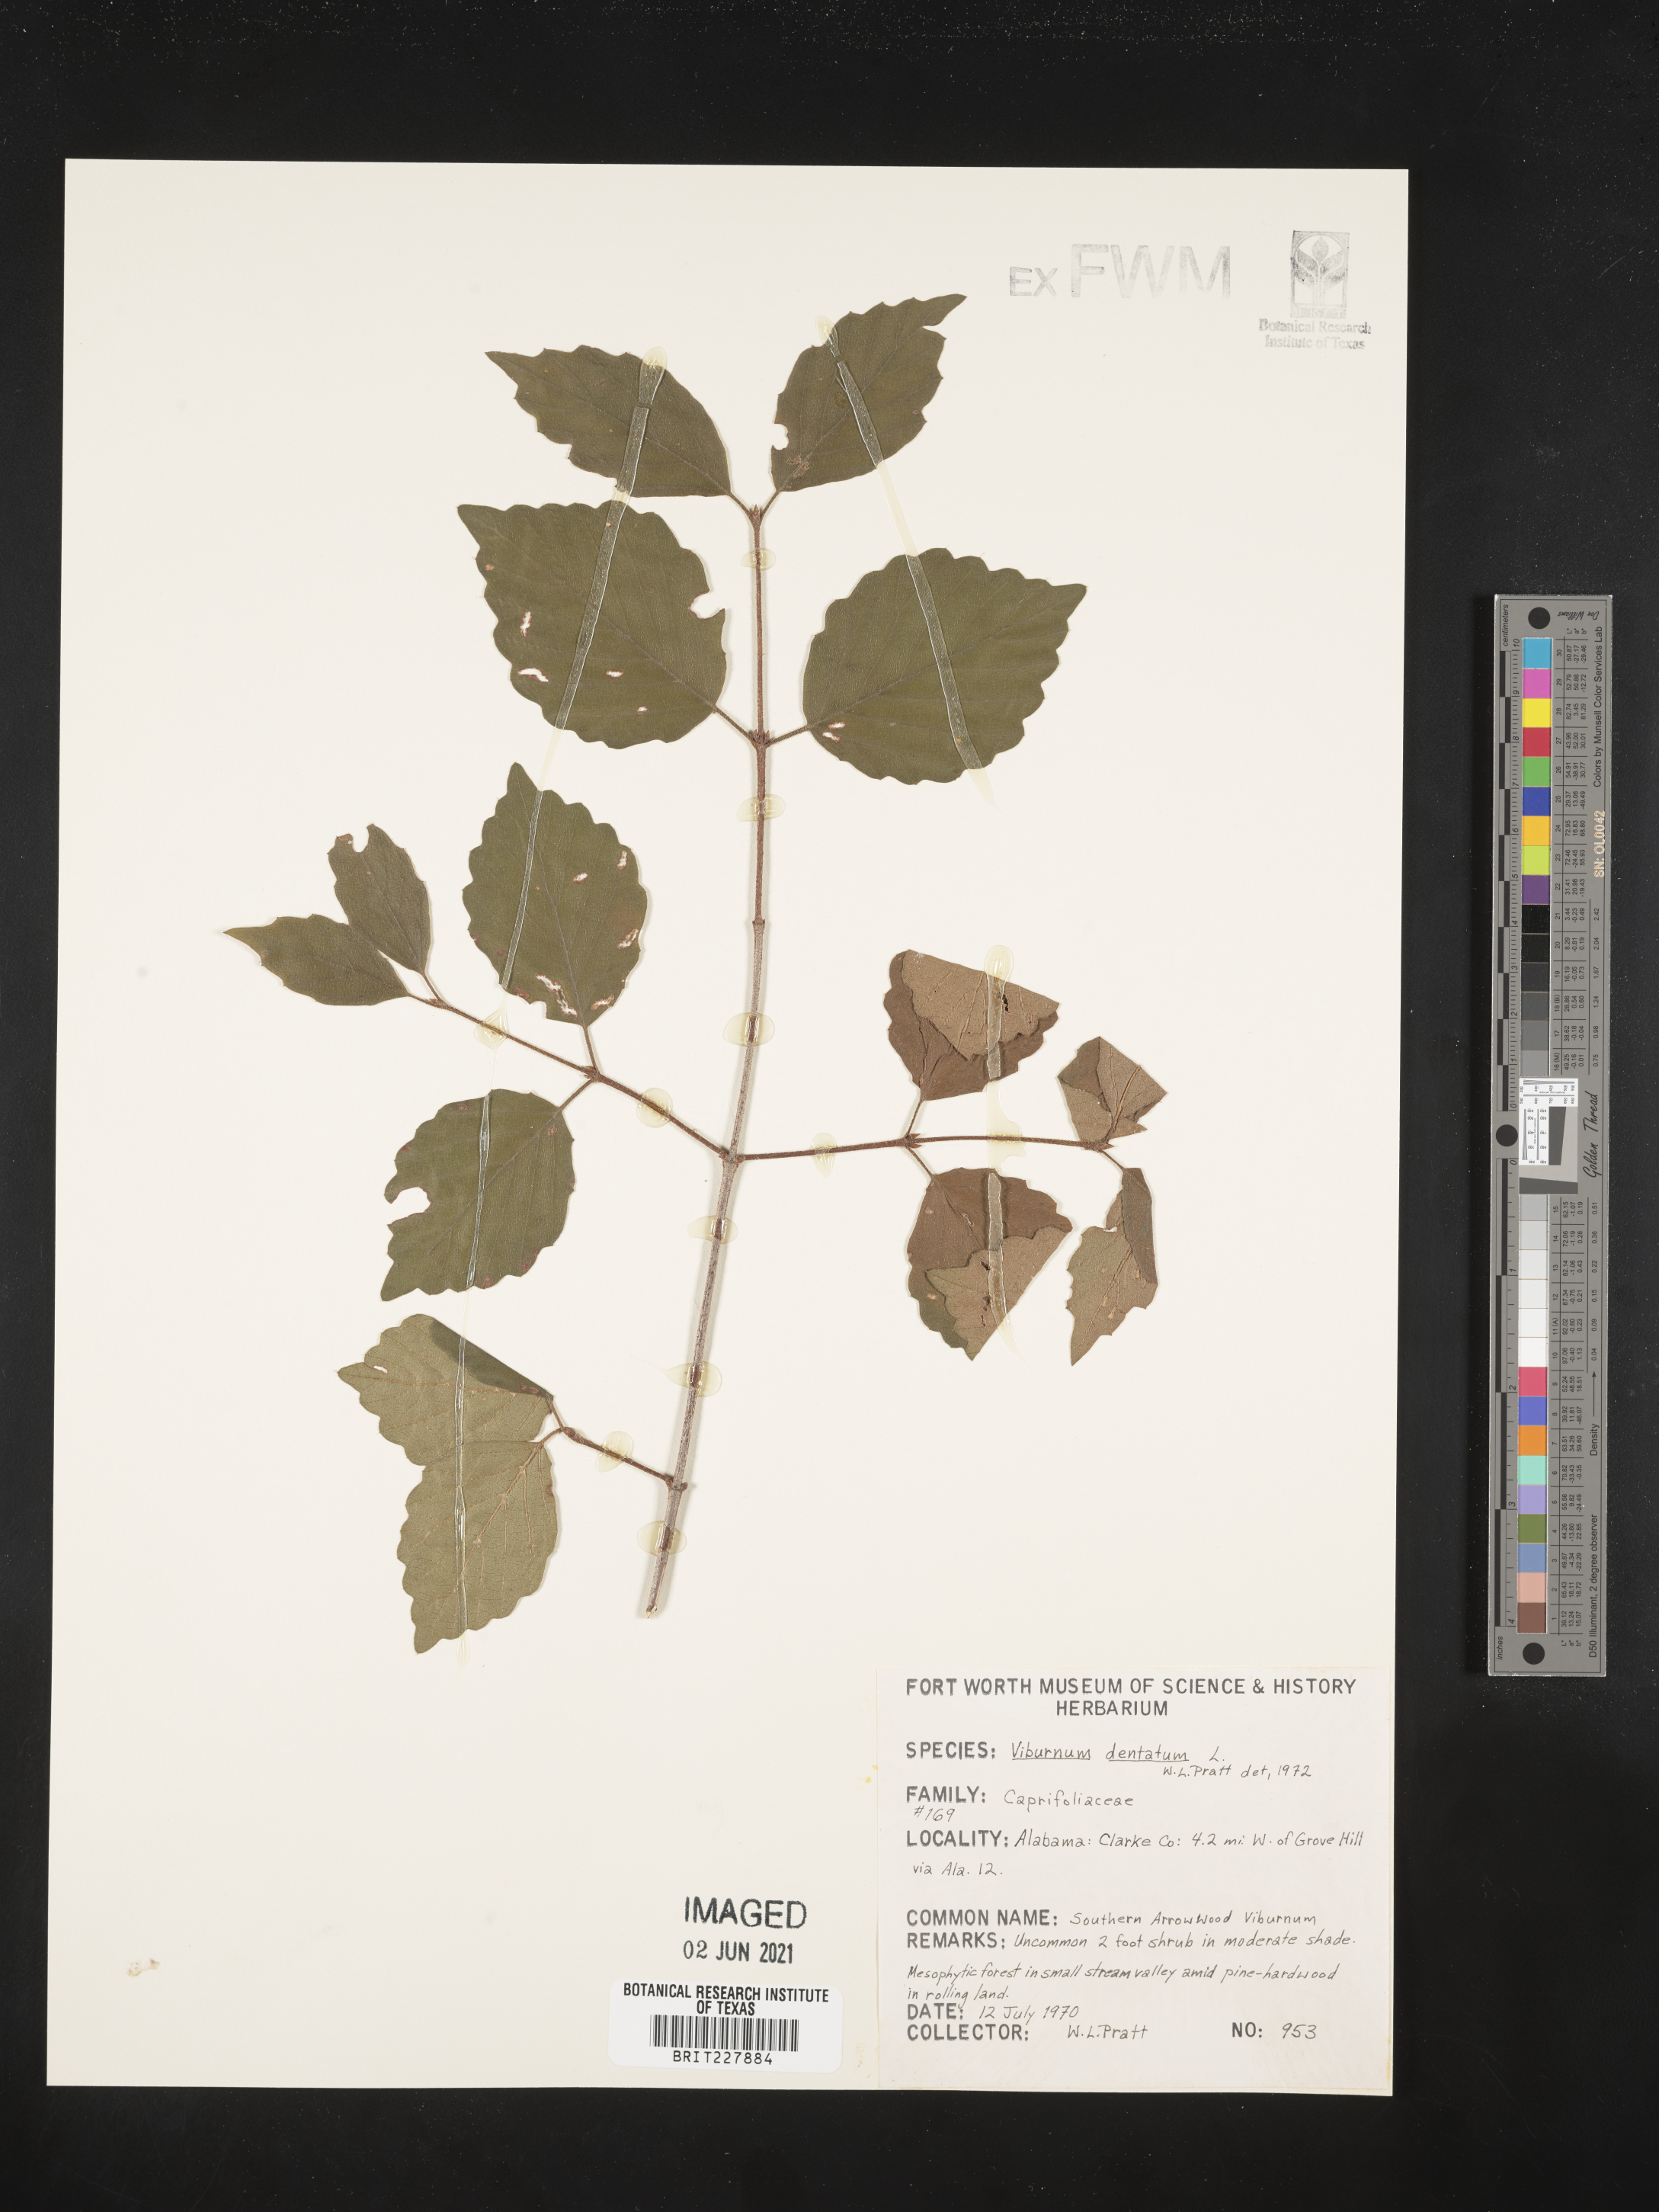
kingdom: Plantae
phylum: Tracheophyta
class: Magnoliopsida
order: Dipsacales
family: Viburnaceae
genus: Viburnum
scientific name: Viburnum dentatum
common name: Arrow-wood
